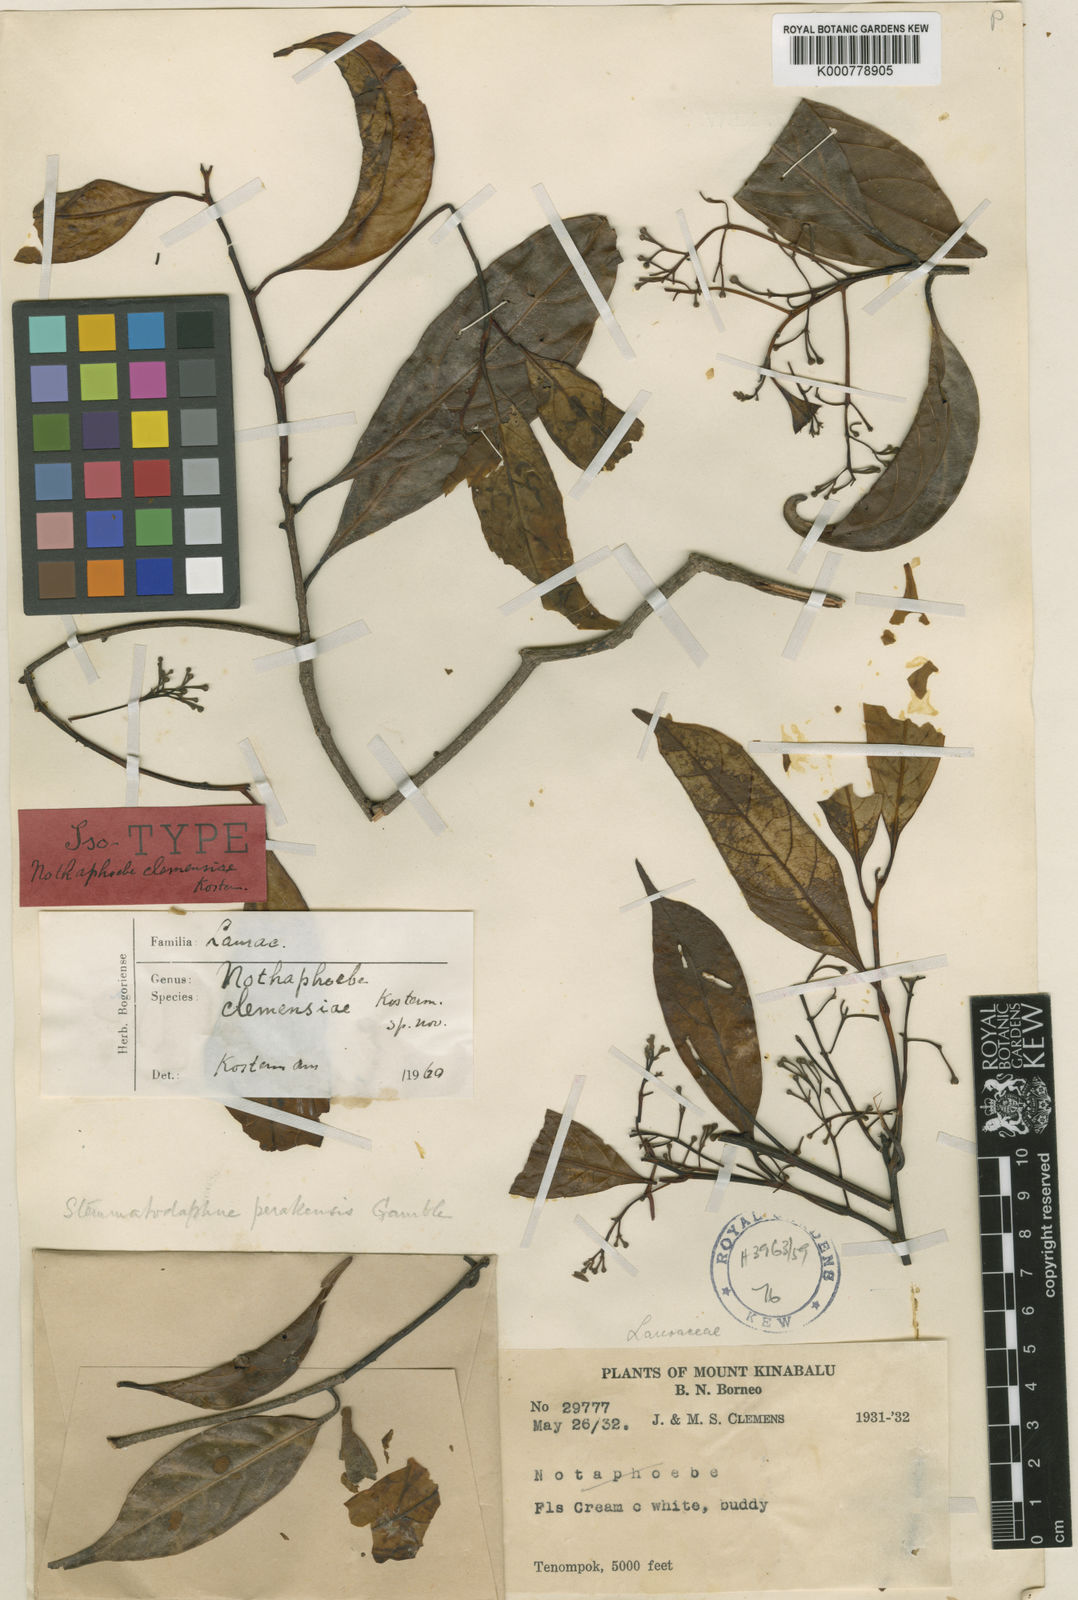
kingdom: Plantae
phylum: Tracheophyta
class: Magnoliopsida
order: Laurales
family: Lauraceae
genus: Nothaphoebe
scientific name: Nothaphoebe
